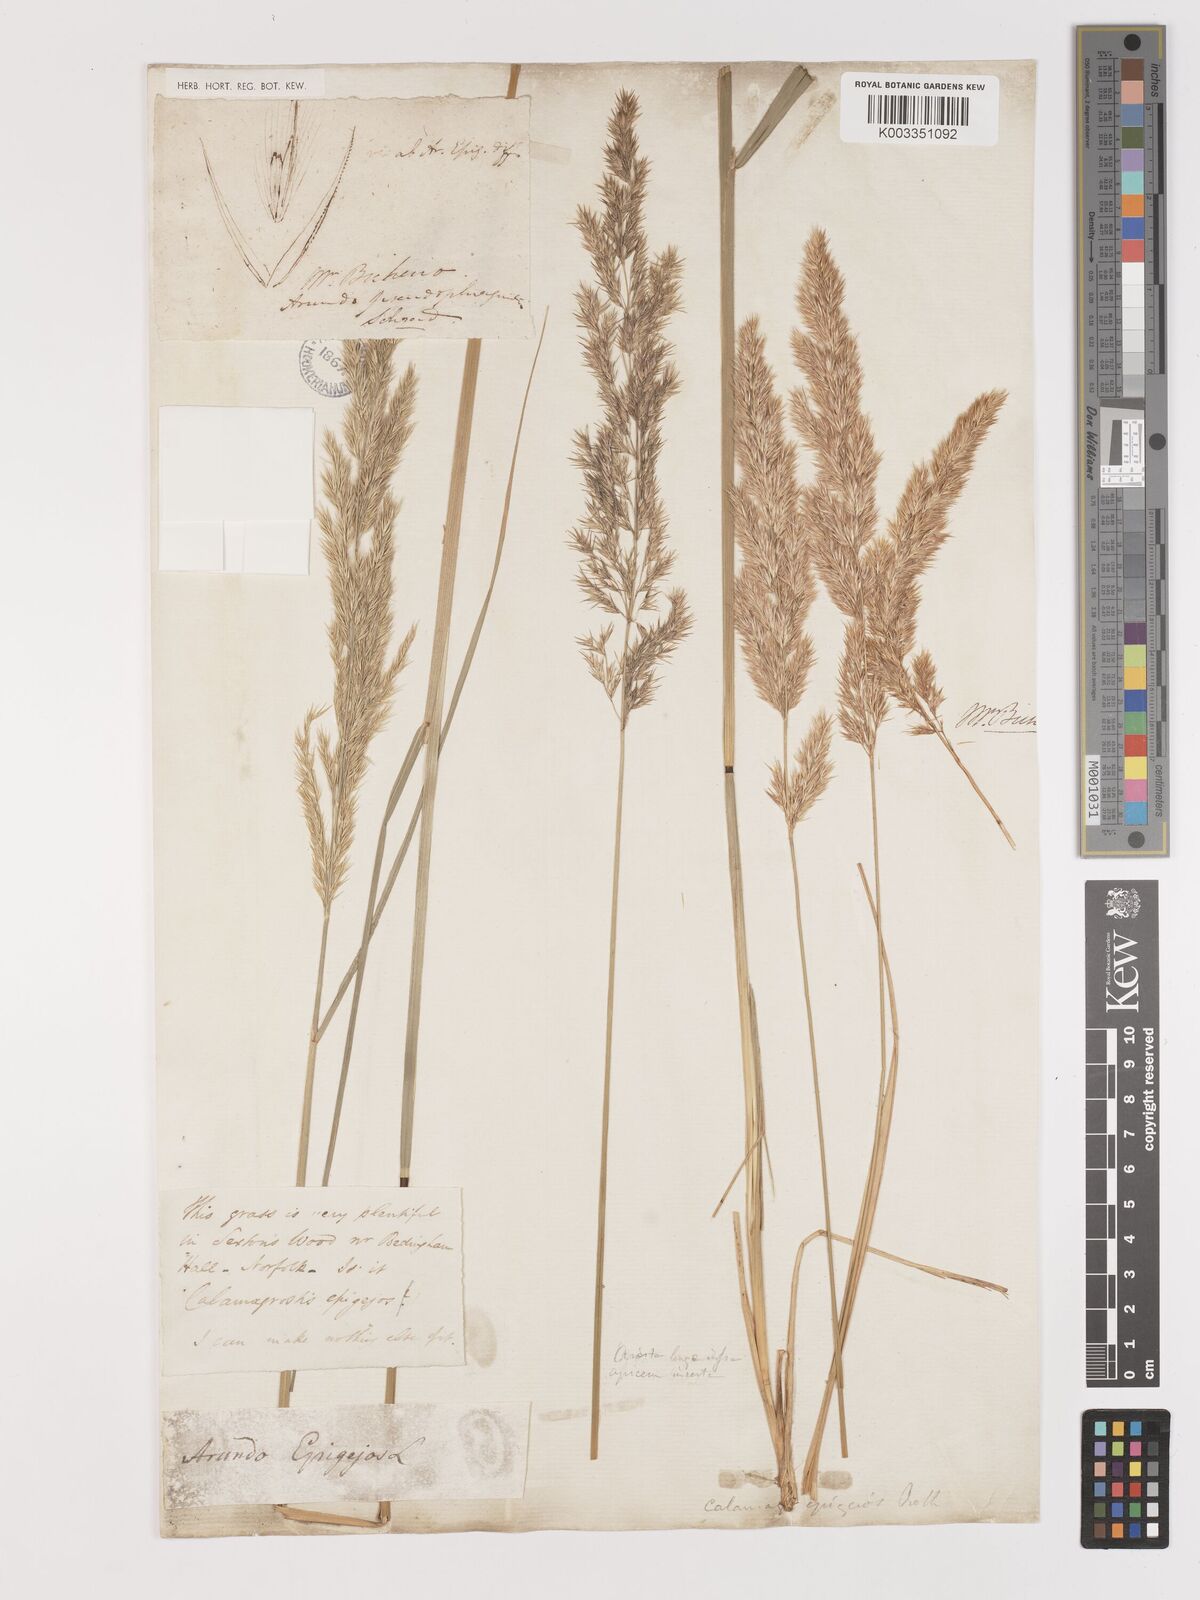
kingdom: Plantae
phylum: Tracheophyta
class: Liliopsida
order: Poales
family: Poaceae
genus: Calamagrostis
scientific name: Calamagrostis
